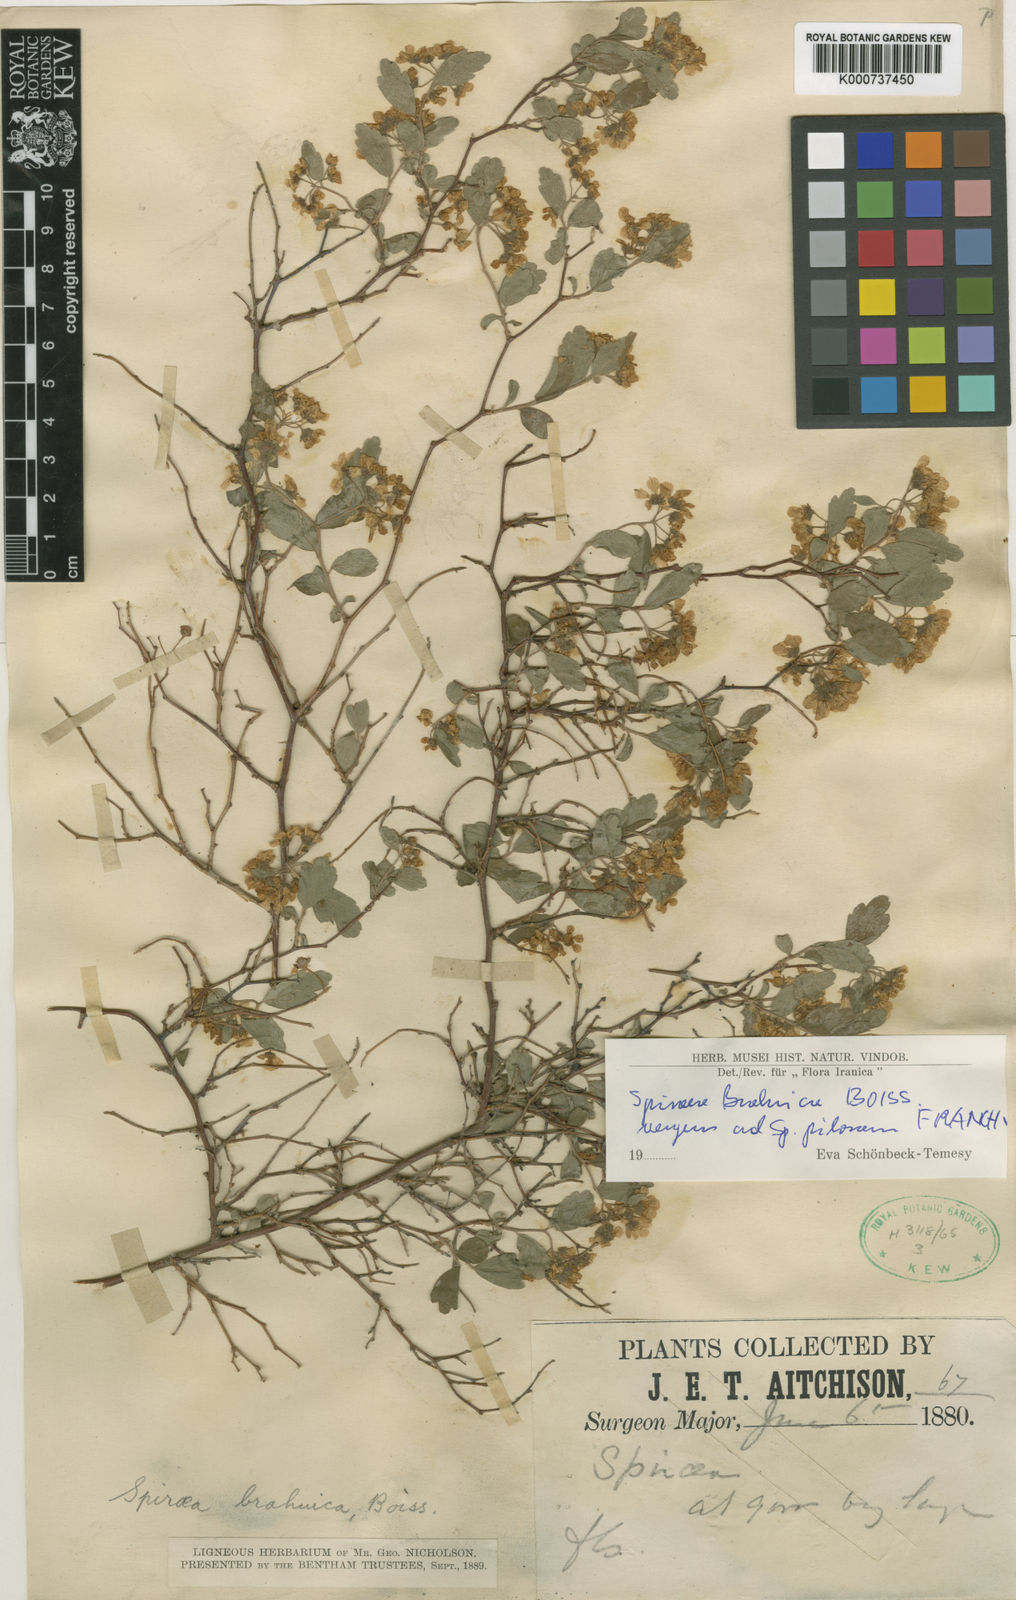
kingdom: Plantae
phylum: Tracheophyta
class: Magnoliopsida
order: Rosales
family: Rosaceae
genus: Spiraea
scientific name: Spiraea
